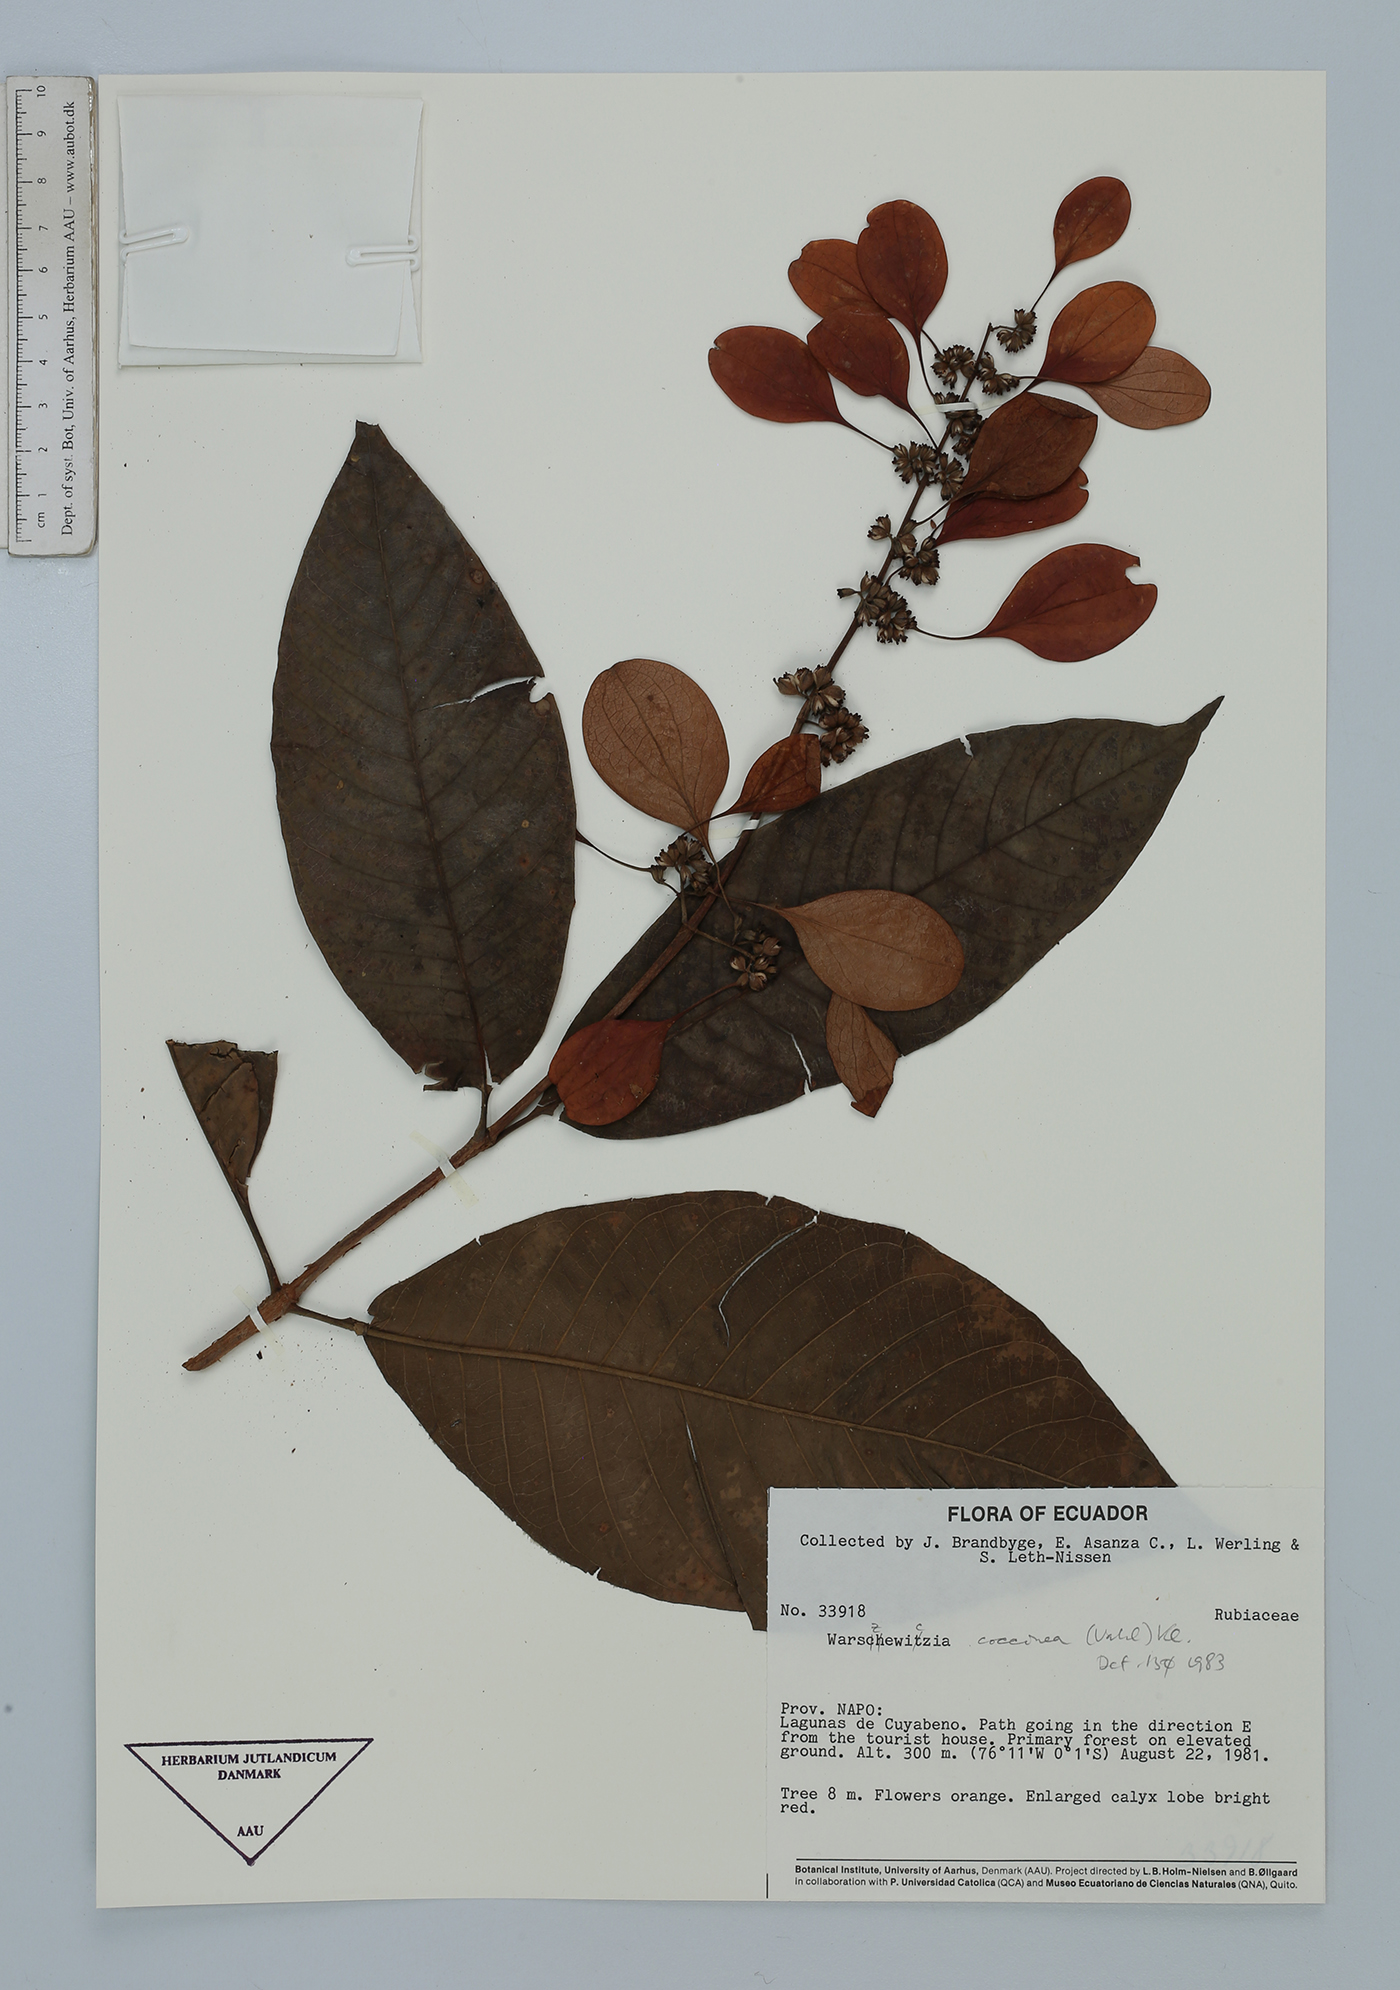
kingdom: Plantae
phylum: Tracheophyta
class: Magnoliopsida
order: Gentianales
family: Rubiaceae
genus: Warszewiczia
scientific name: Warszewiczia coccinea
